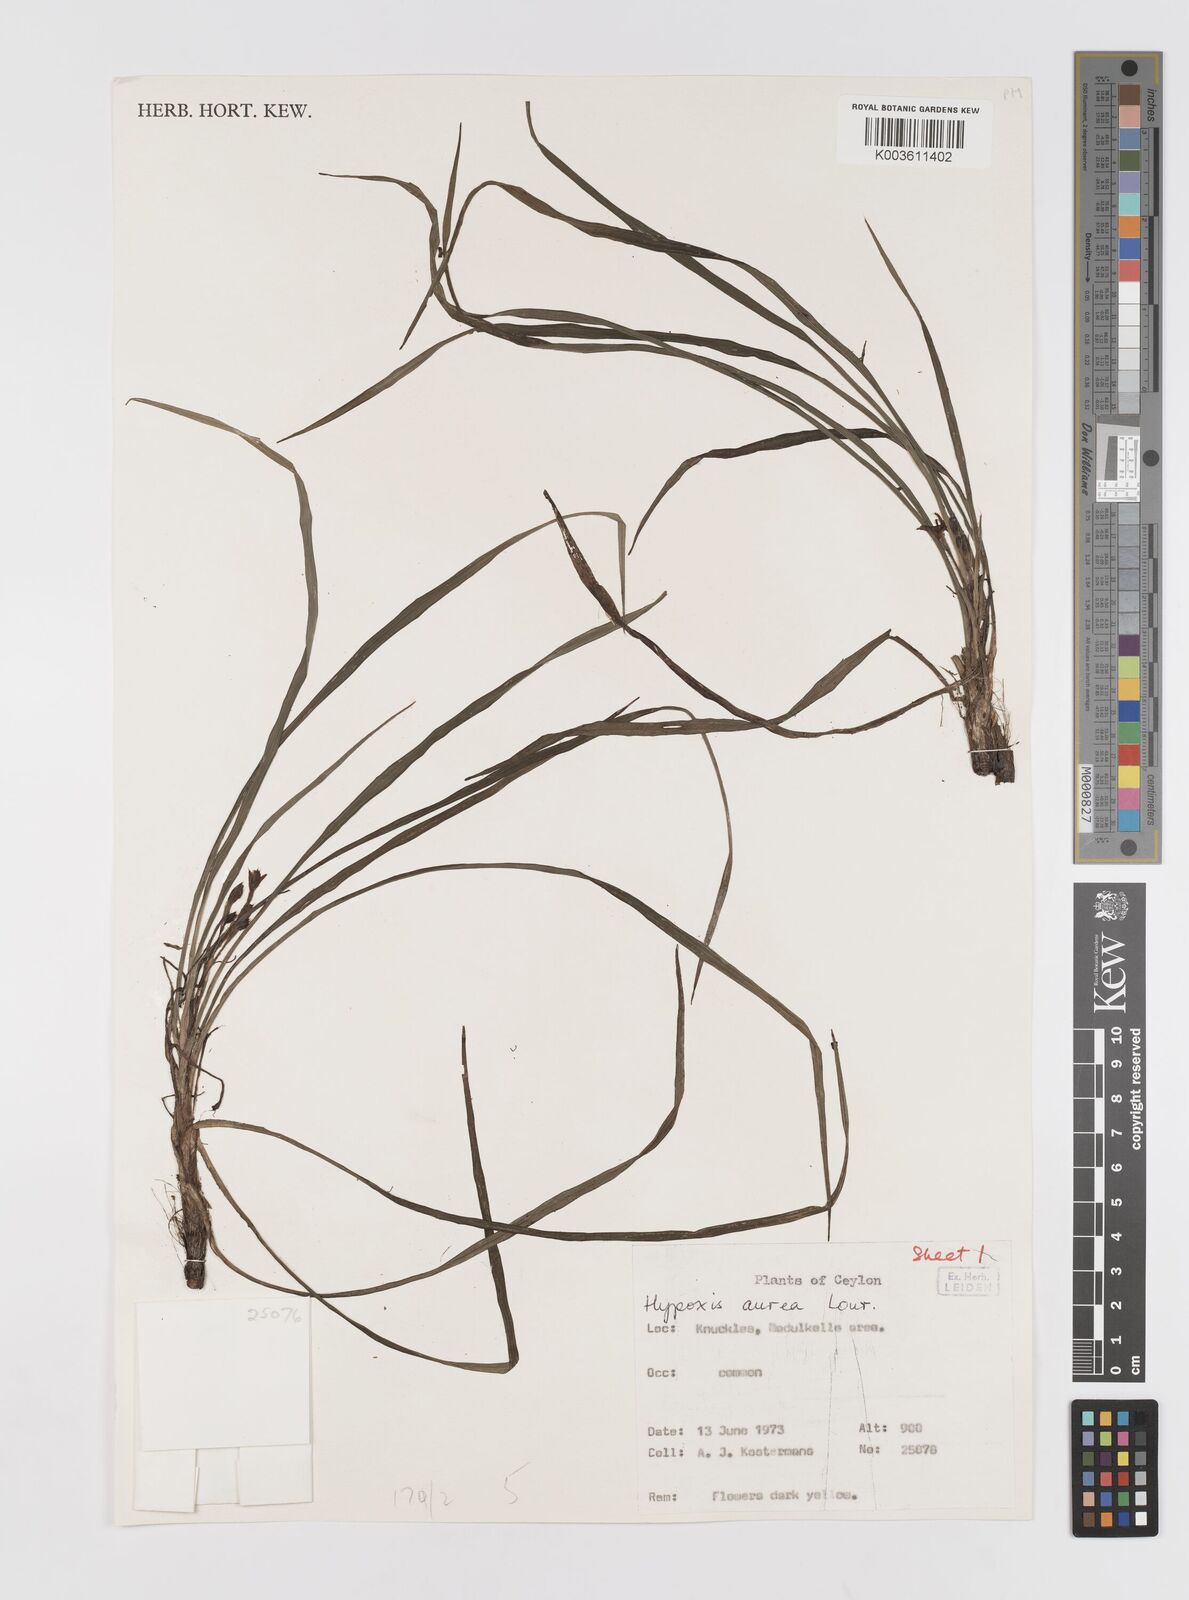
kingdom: Plantae
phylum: Tracheophyta
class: Liliopsida
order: Asparagales
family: Hypoxidaceae
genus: Hypoxis
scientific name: Hypoxis aurea
